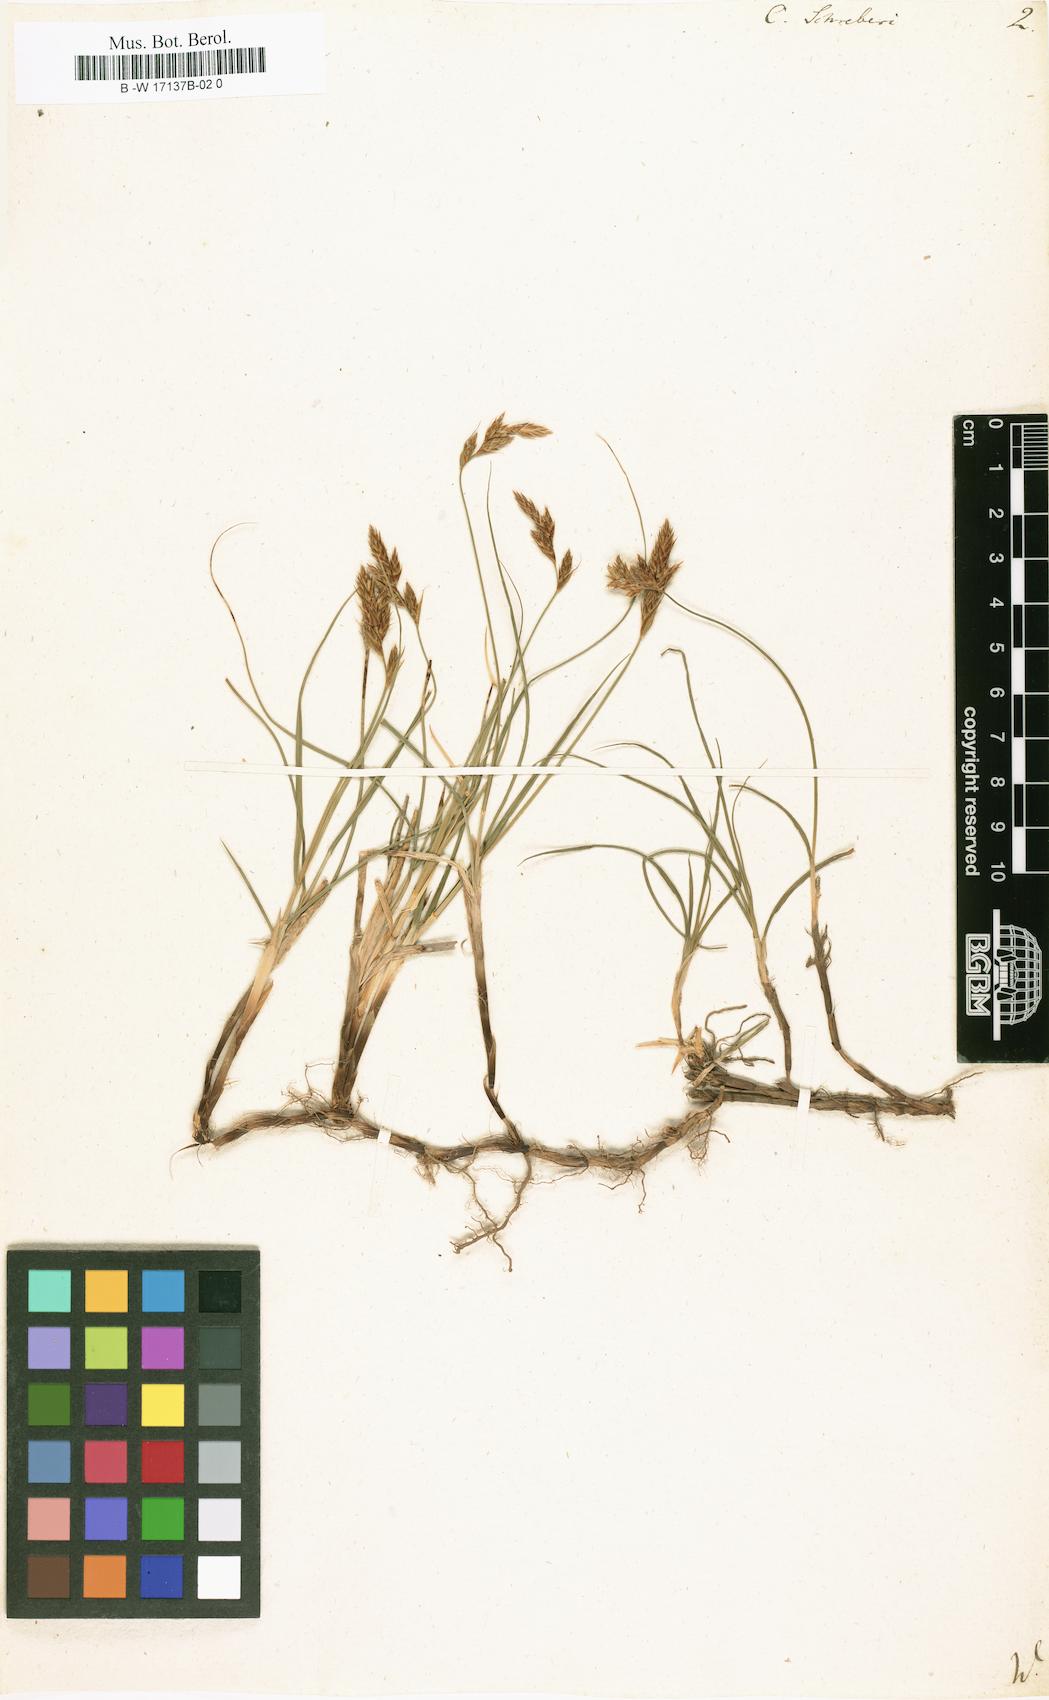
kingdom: Plantae
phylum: Tracheophyta
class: Liliopsida
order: Poales
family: Cyperaceae
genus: Carex
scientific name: Carex
